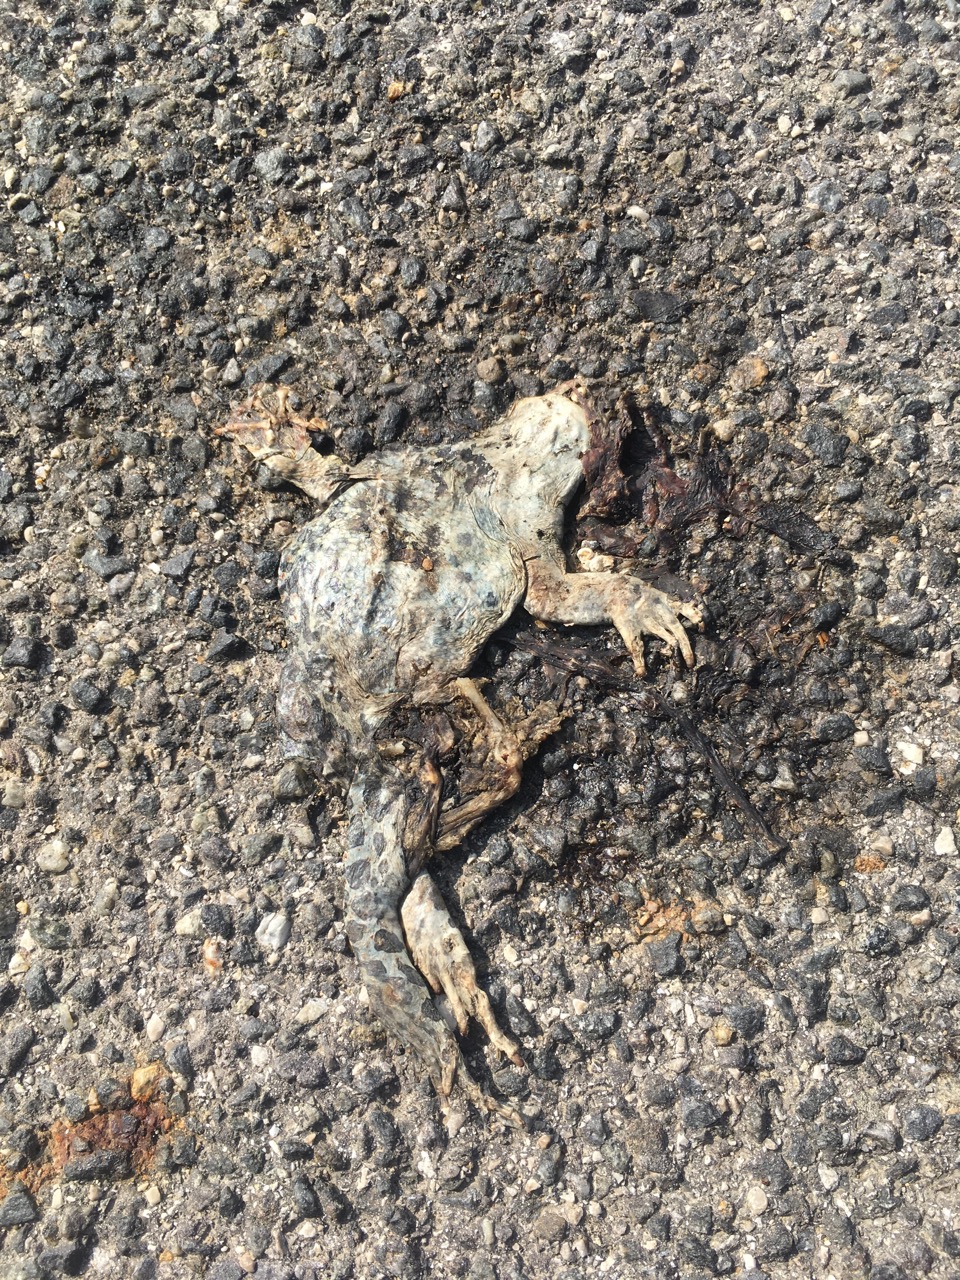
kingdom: Animalia
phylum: Chordata
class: Amphibia
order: Anura
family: Bufonidae
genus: Bufotes
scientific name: Bufotes viridis
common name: European green toad
